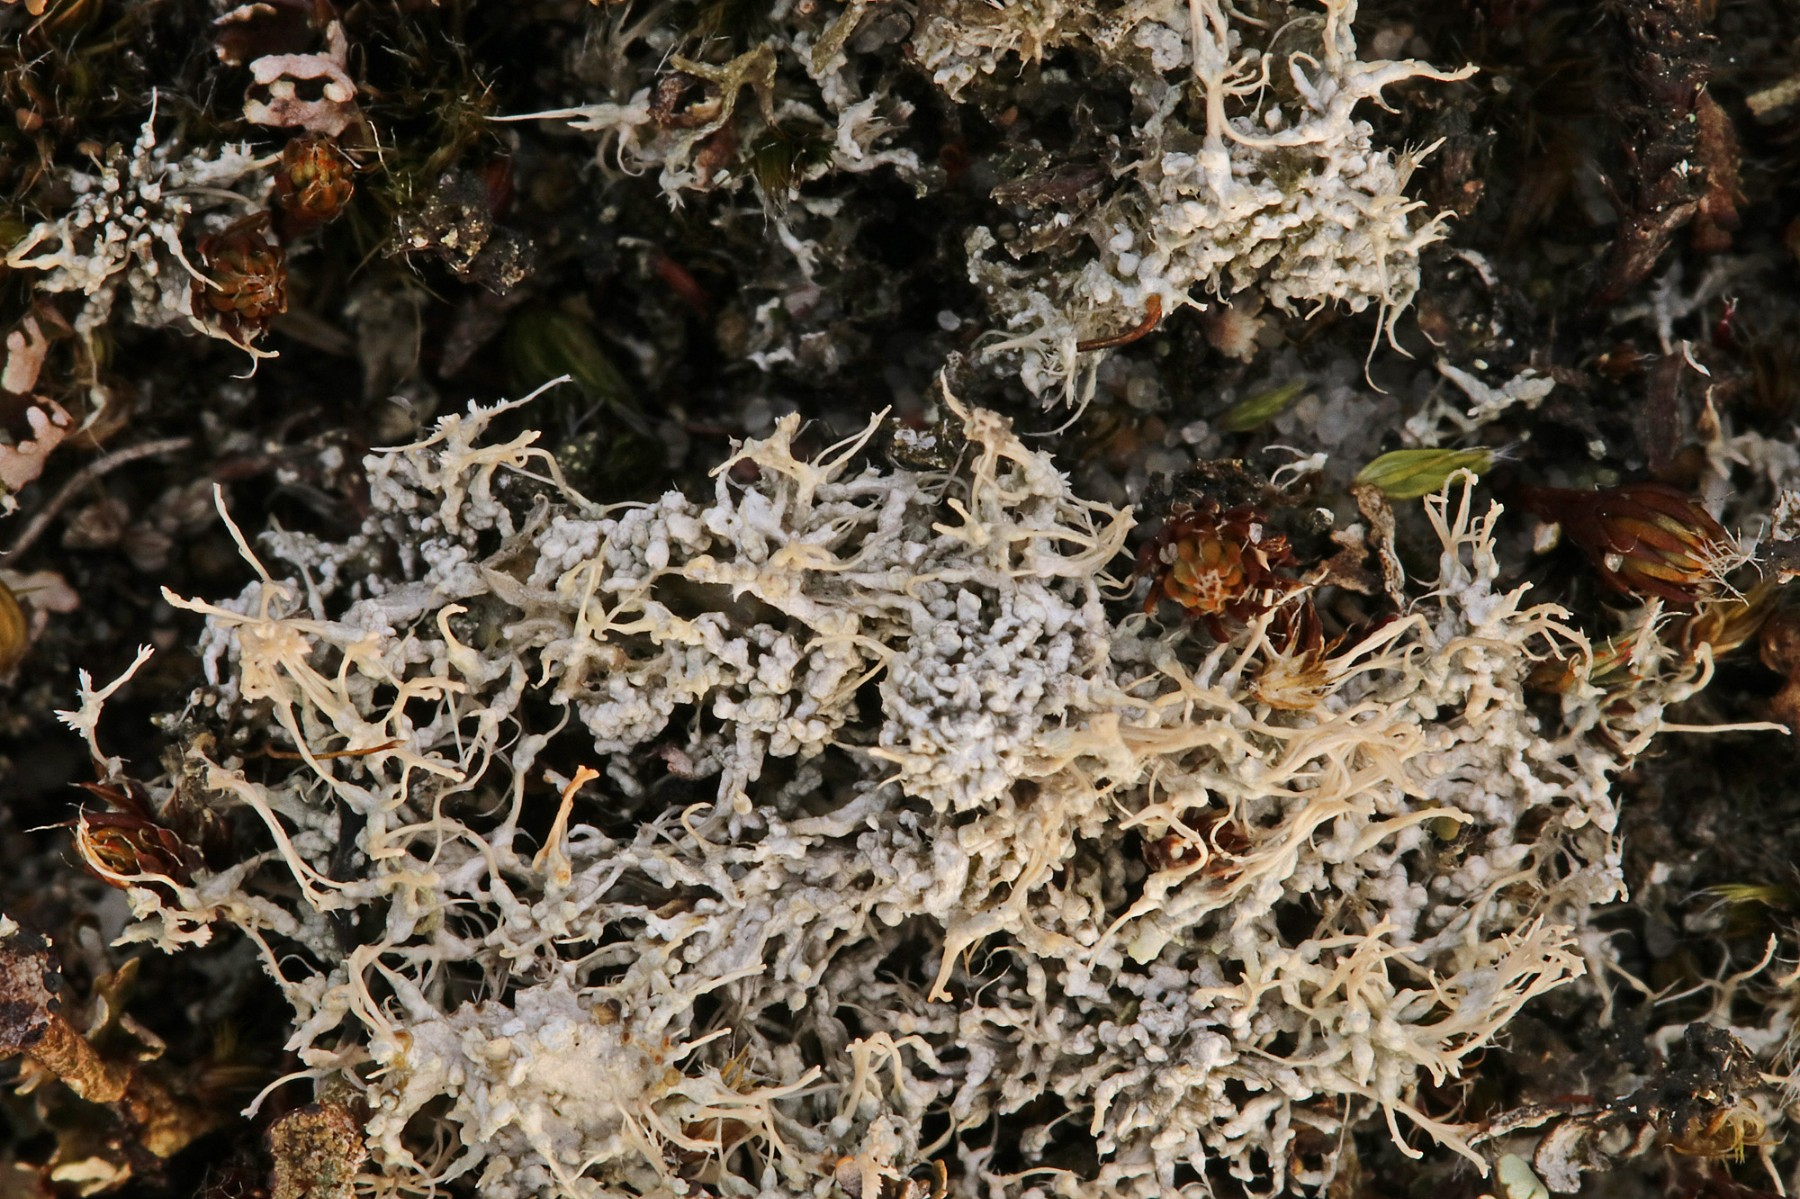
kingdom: Fungi
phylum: Ascomycota
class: Lecanoromycetes
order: Pertusariales
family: Ochrolechiaceae
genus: Ochrolechia
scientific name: Ochrolechia frigida
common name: fjeld-blegskivelav
